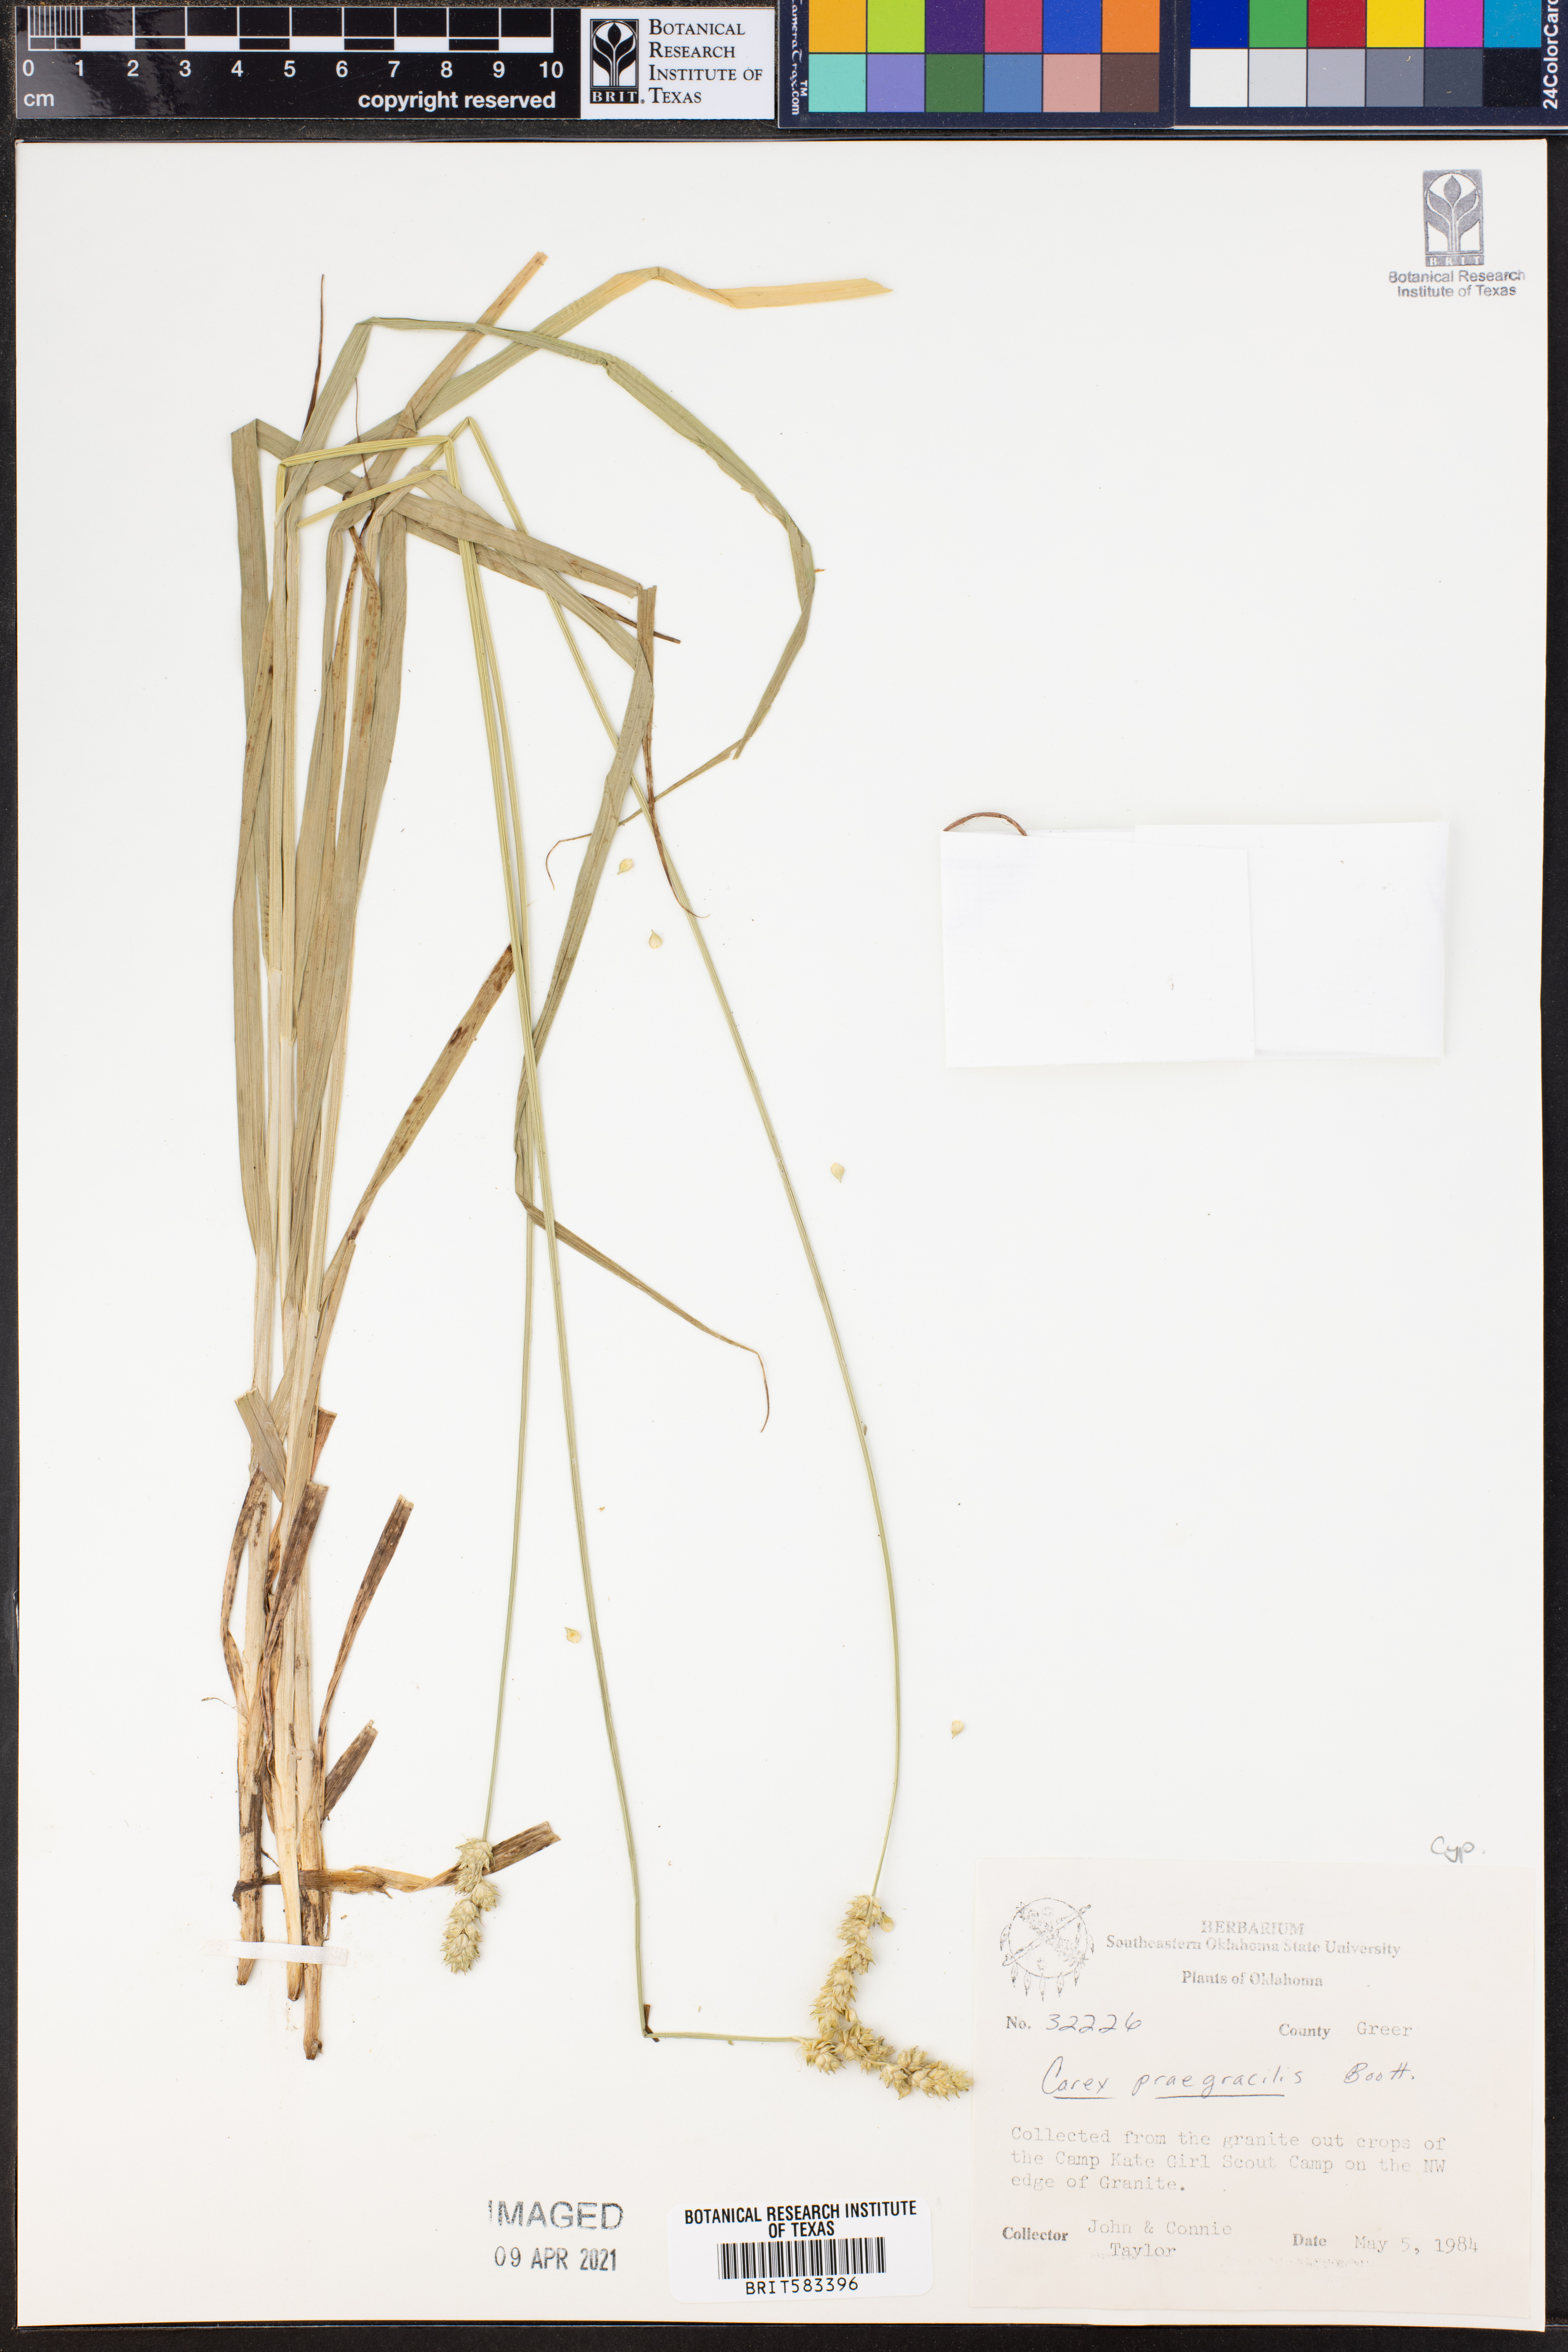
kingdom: Plantae
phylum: Tracheophyta
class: Liliopsida
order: Poales
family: Cyperaceae
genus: Carex
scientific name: Carex praegracilis
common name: Black creeper sedge
